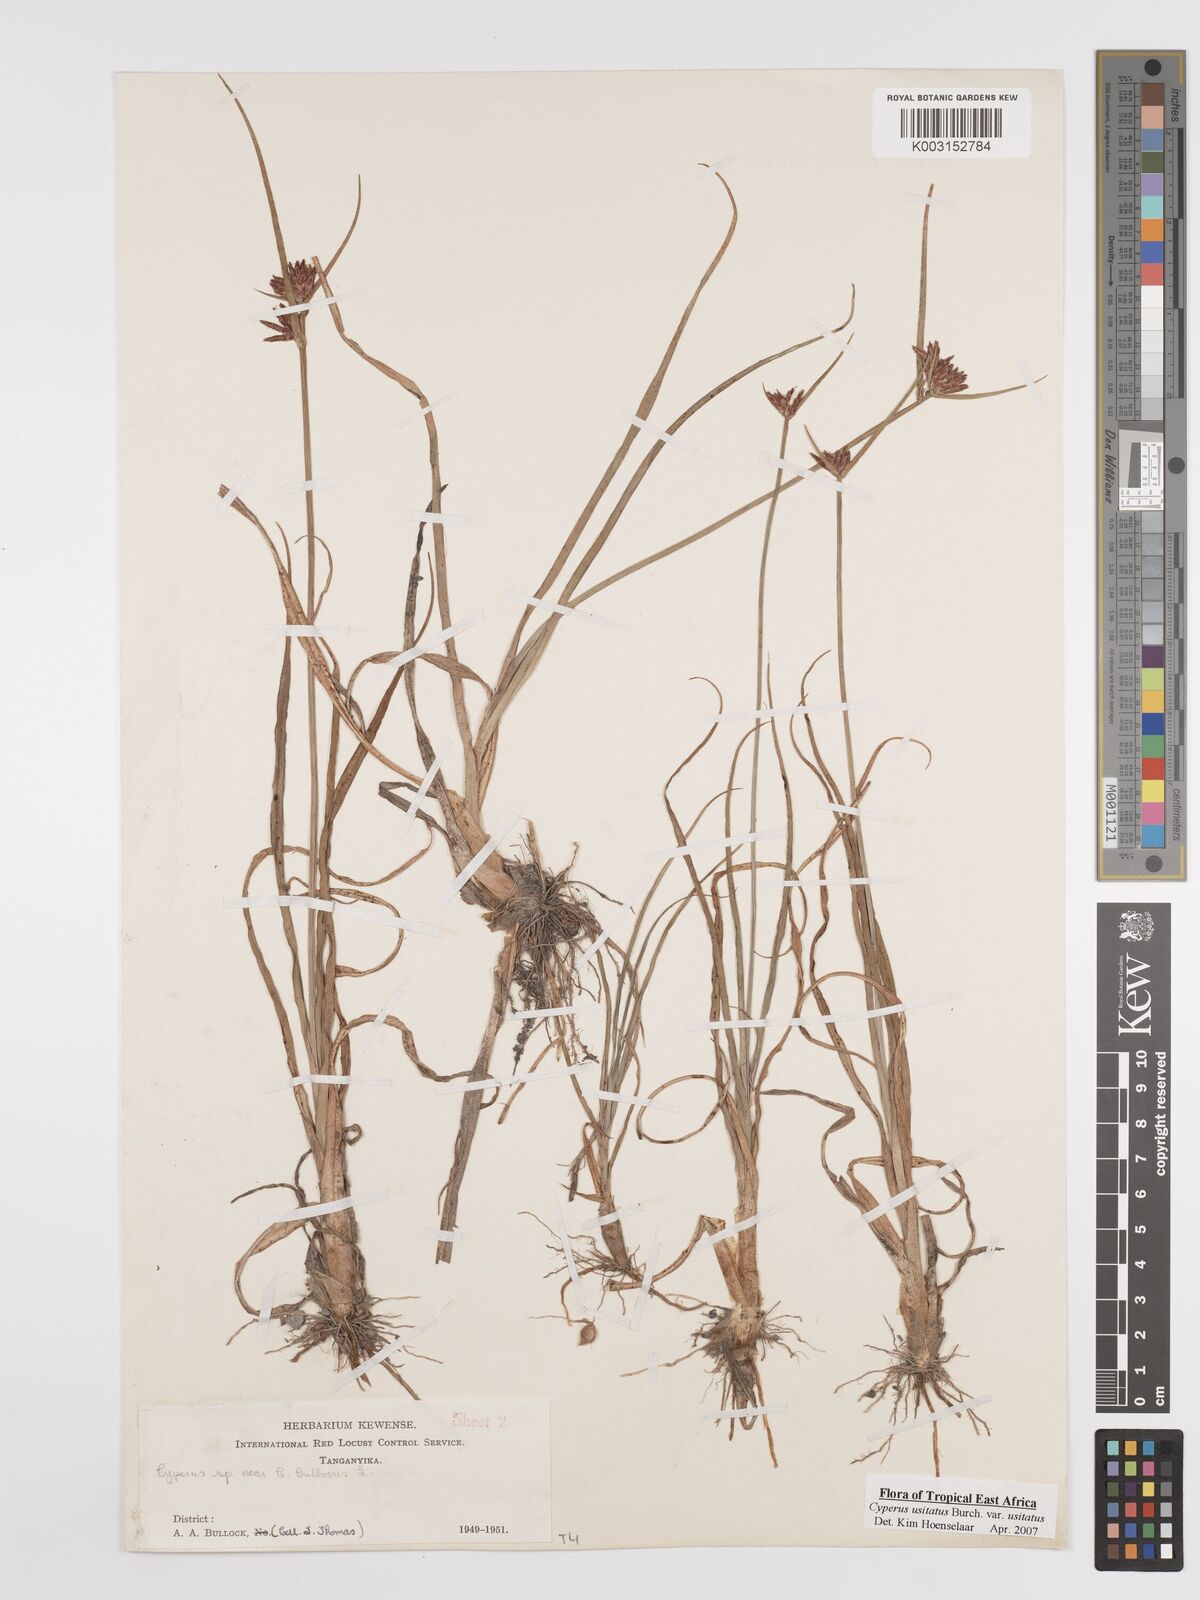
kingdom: Plantae
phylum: Tracheophyta
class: Liliopsida
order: Poales
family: Cyperaceae
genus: Cyperus
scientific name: Cyperus usitatus
